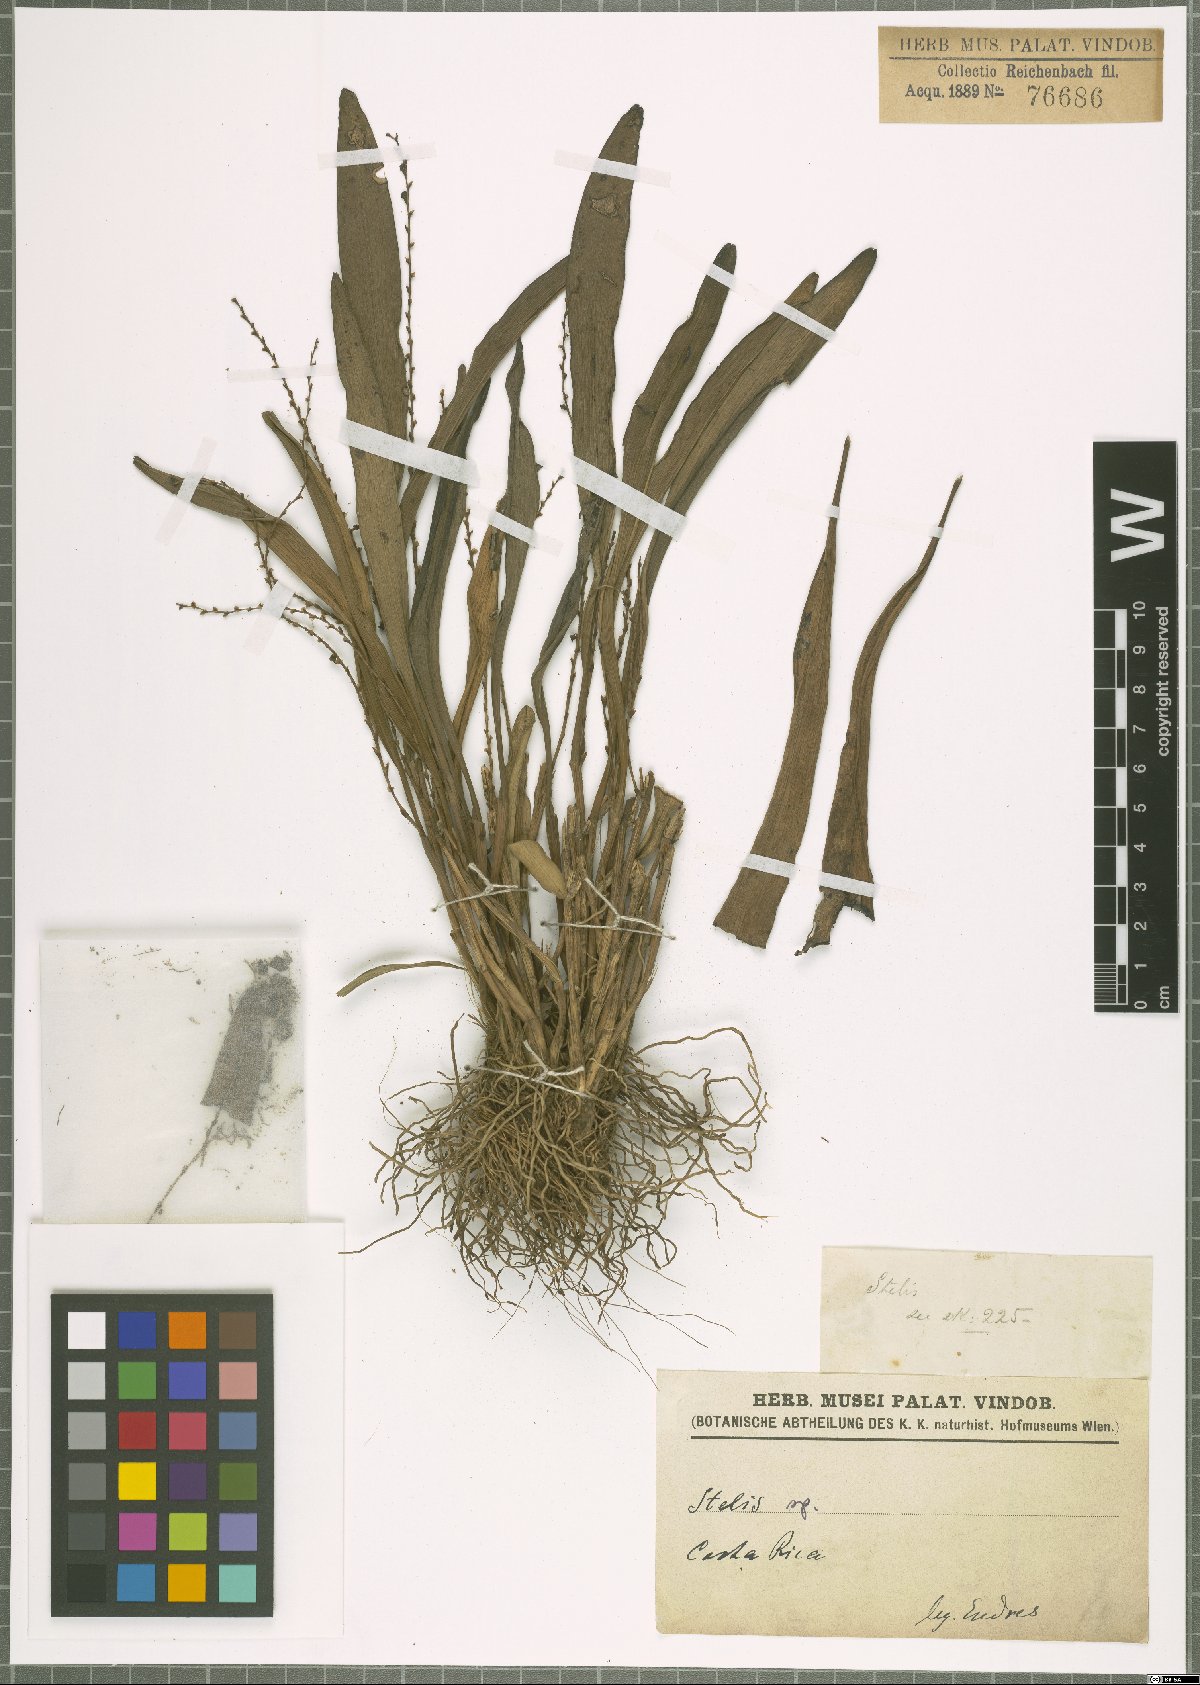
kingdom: Plantae
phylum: Tracheophyta
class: Liliopsida
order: Asparagales
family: Orchidaceae
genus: Stelis
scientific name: Stelis
